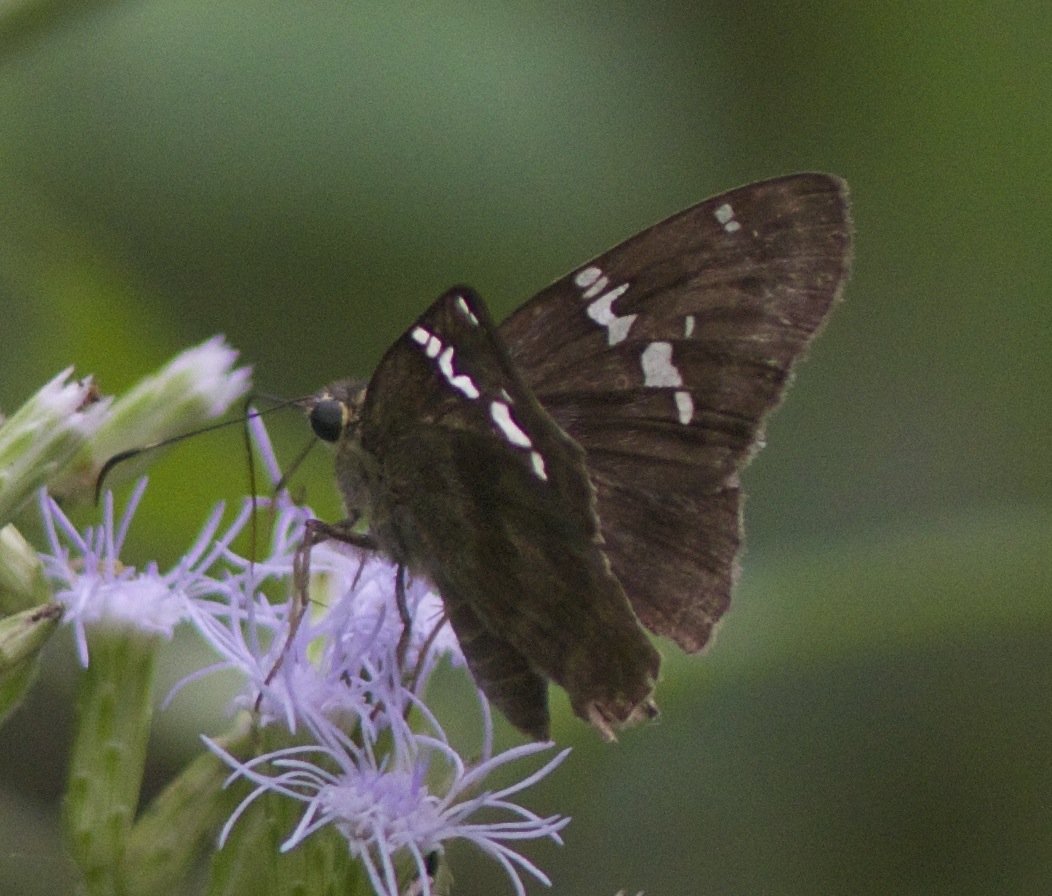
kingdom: Animalia
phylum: Arthropoda
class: Insecta
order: Lepidoptera
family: Hesperiidae
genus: Cabares
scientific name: Cabares potrillo
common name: Potrillo Skipper
